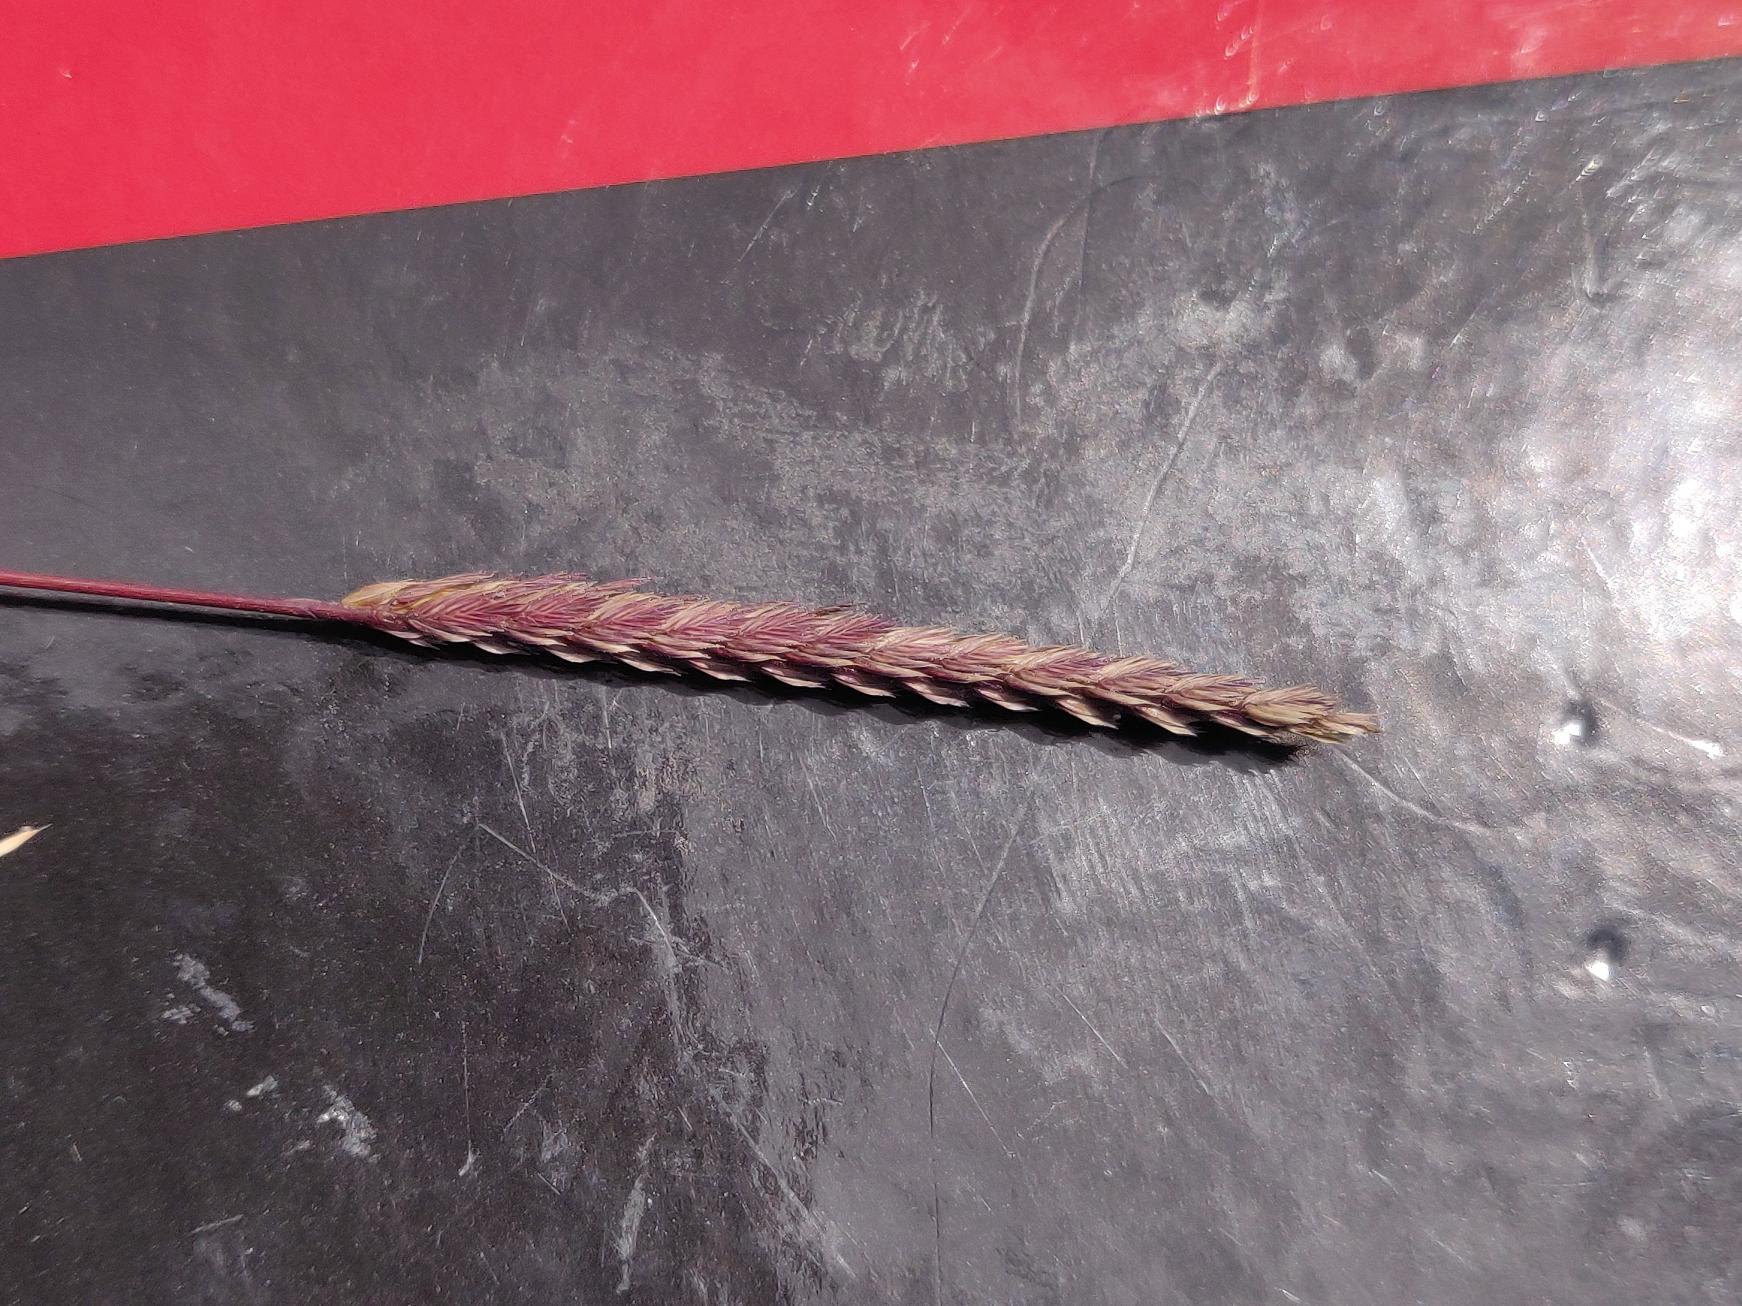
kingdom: Plantae
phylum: Tracheophyta
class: Liliopsida
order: Poales
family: Poaceae
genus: Cynosurus
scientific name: Cynosurus cristatus
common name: Kamgræs
